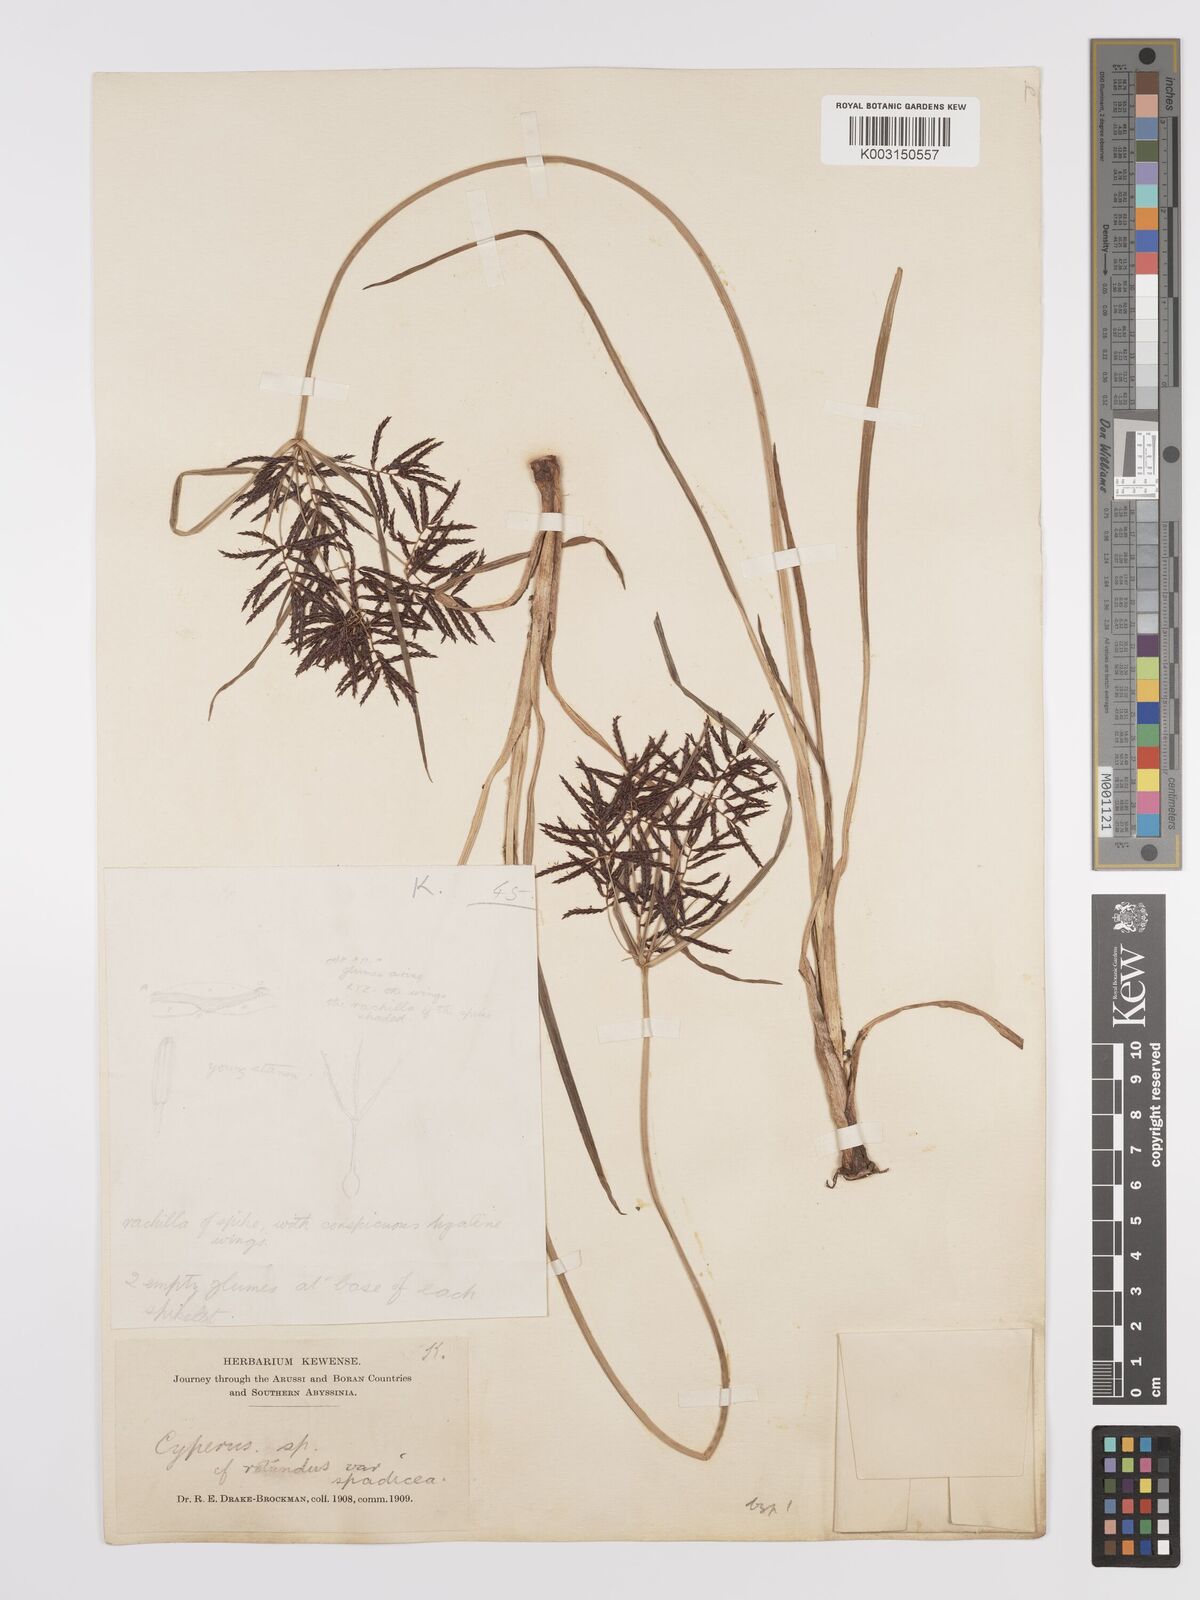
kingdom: Plantae
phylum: Tracheophyta
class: Liliopsida
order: Poales
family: Cyperaceae
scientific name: Cyperaceae
